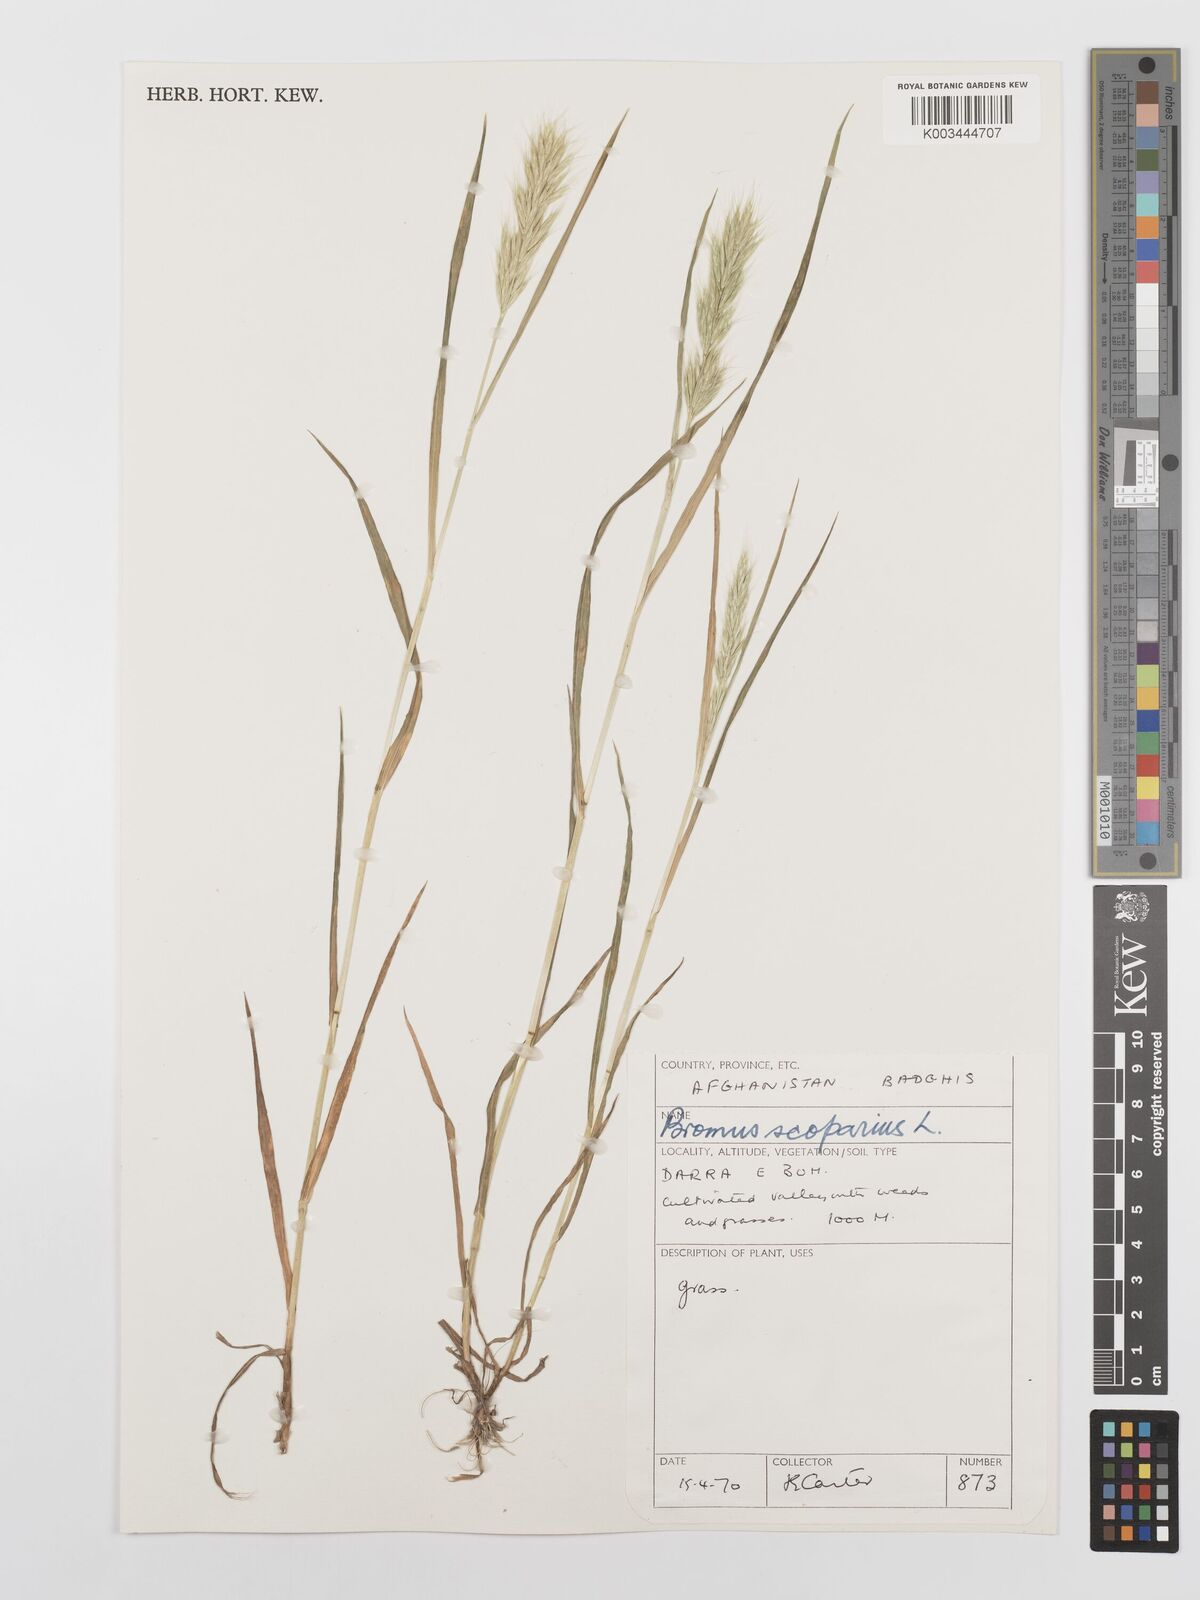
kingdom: Plantae
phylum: Tracheophyta
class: Liliopsida
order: Poales
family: Poaceae
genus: Bromus
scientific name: Bromus scoparius
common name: Broom brome
